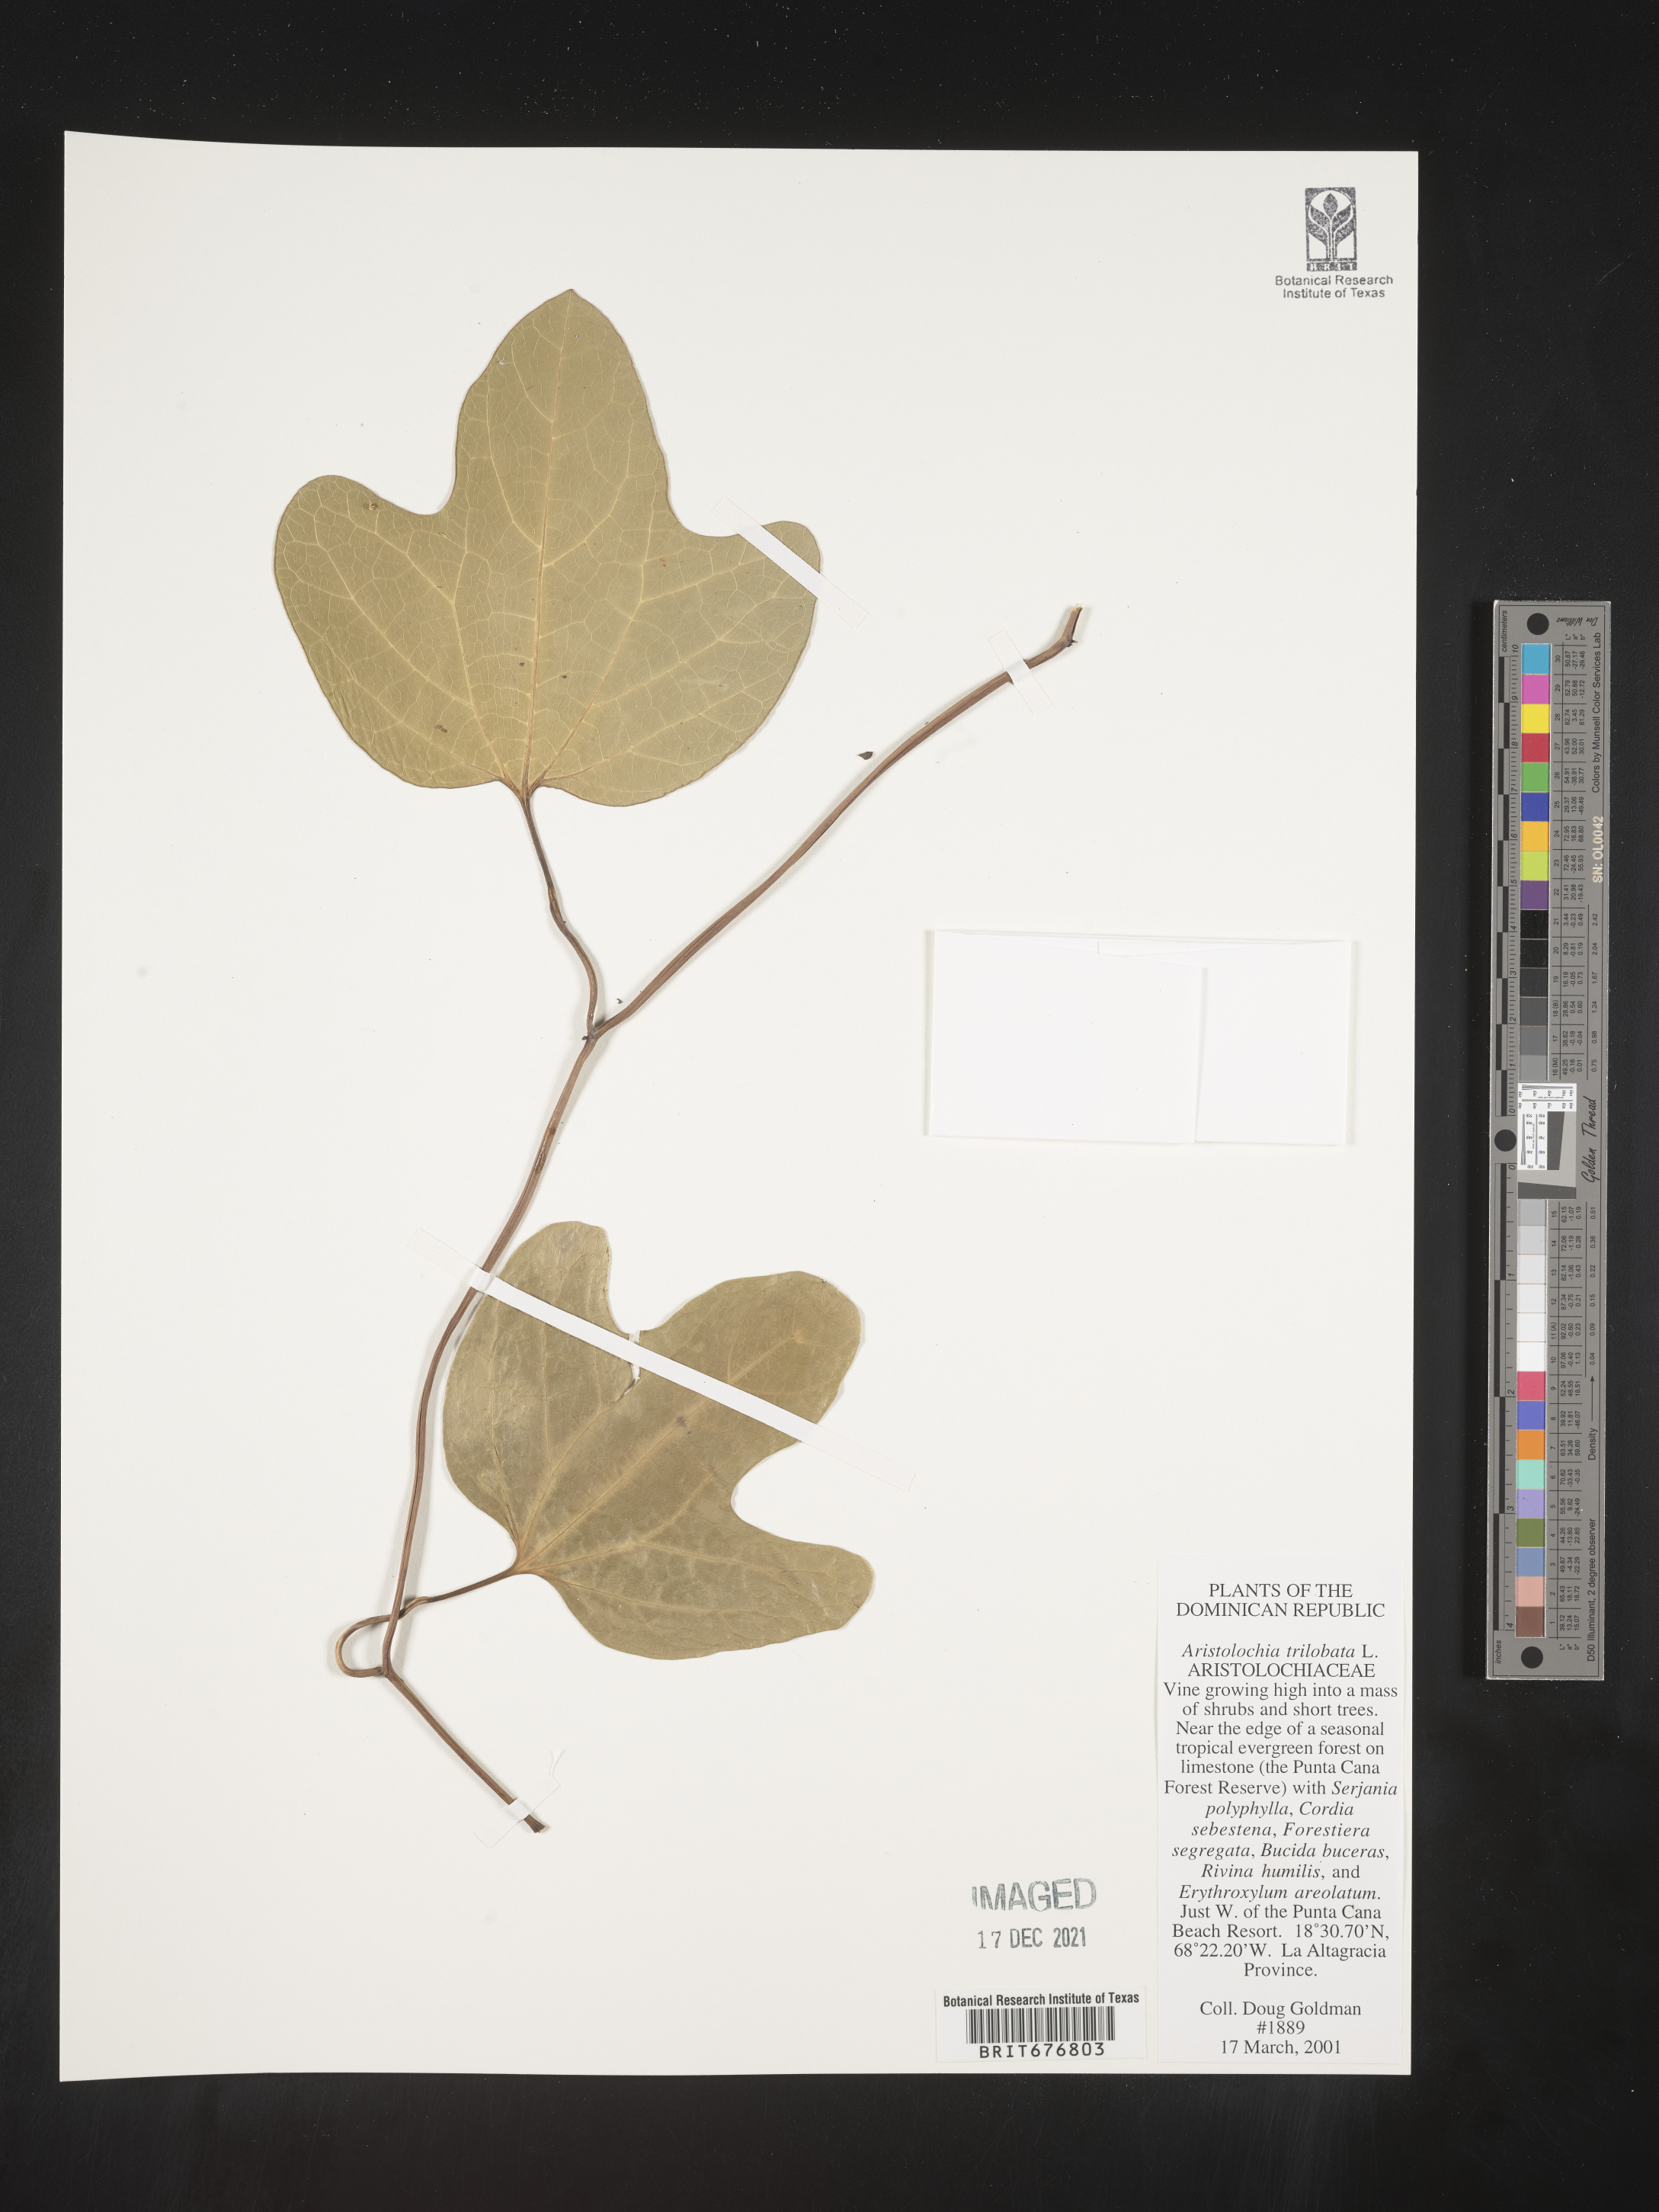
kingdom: Plantae
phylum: Tracheophyta
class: Magnoliopsida
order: Piperales
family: Aristolochiaceae
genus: Aristolochia
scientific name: Aristolochia
